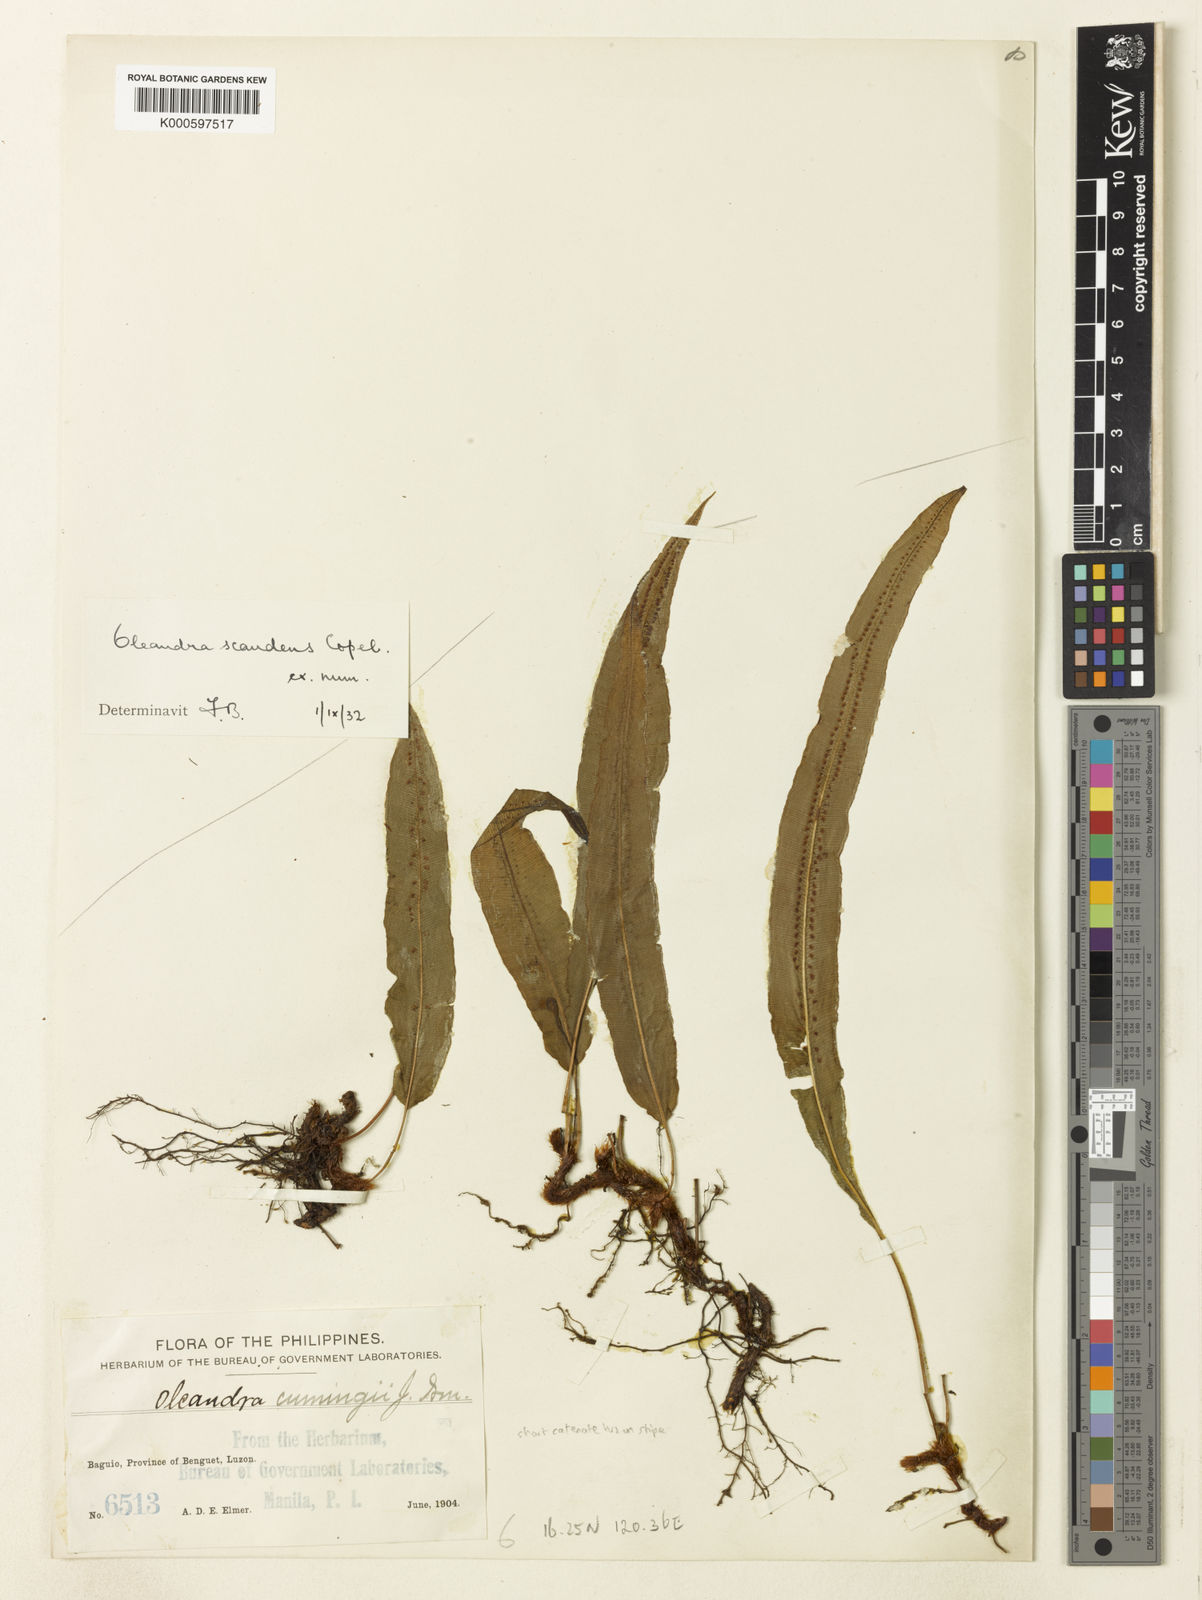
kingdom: Plantae
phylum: Tracheophyta
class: Polypodiopsida
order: Polypodiales
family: Oleandraceae
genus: Oleandra
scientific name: Oleandra cumingii
